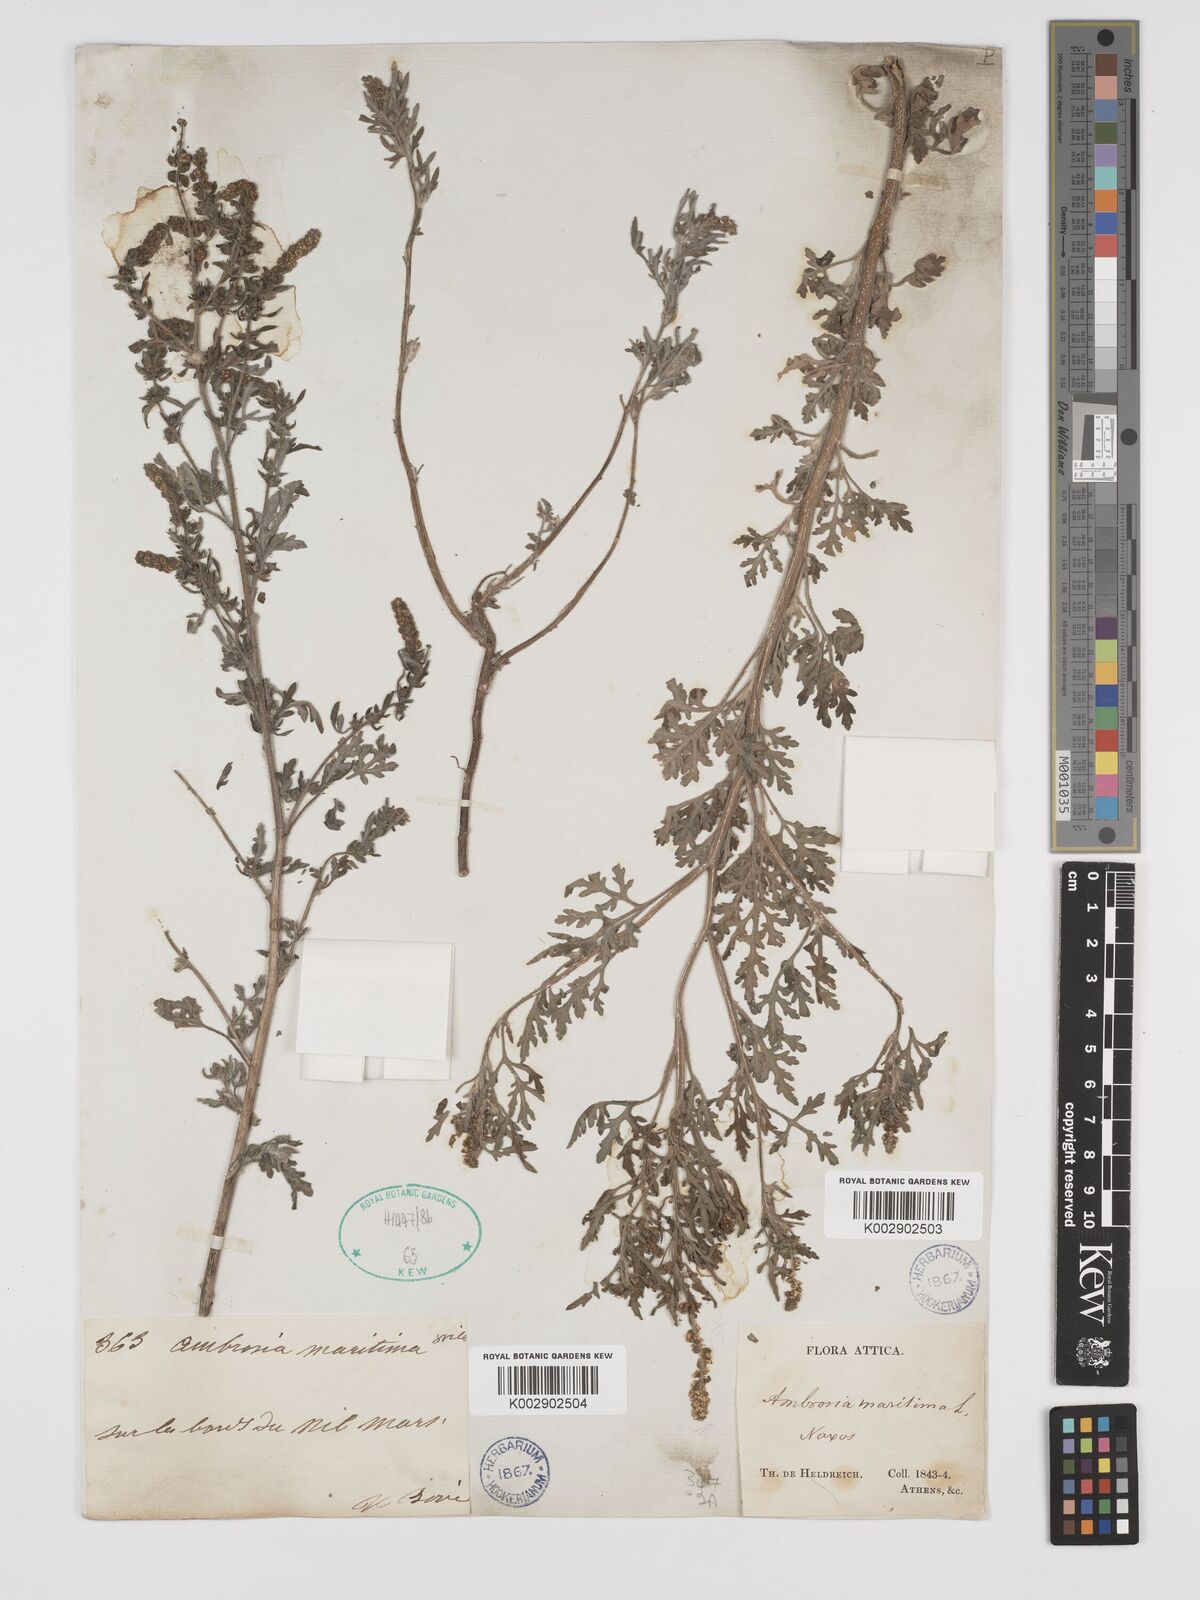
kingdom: Plantae
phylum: Tracheophyta
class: Magnoliopsida
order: Asterales
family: Asteraceae
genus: Ambrosia
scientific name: Ambrosia maritima
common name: Sea ambrosia
